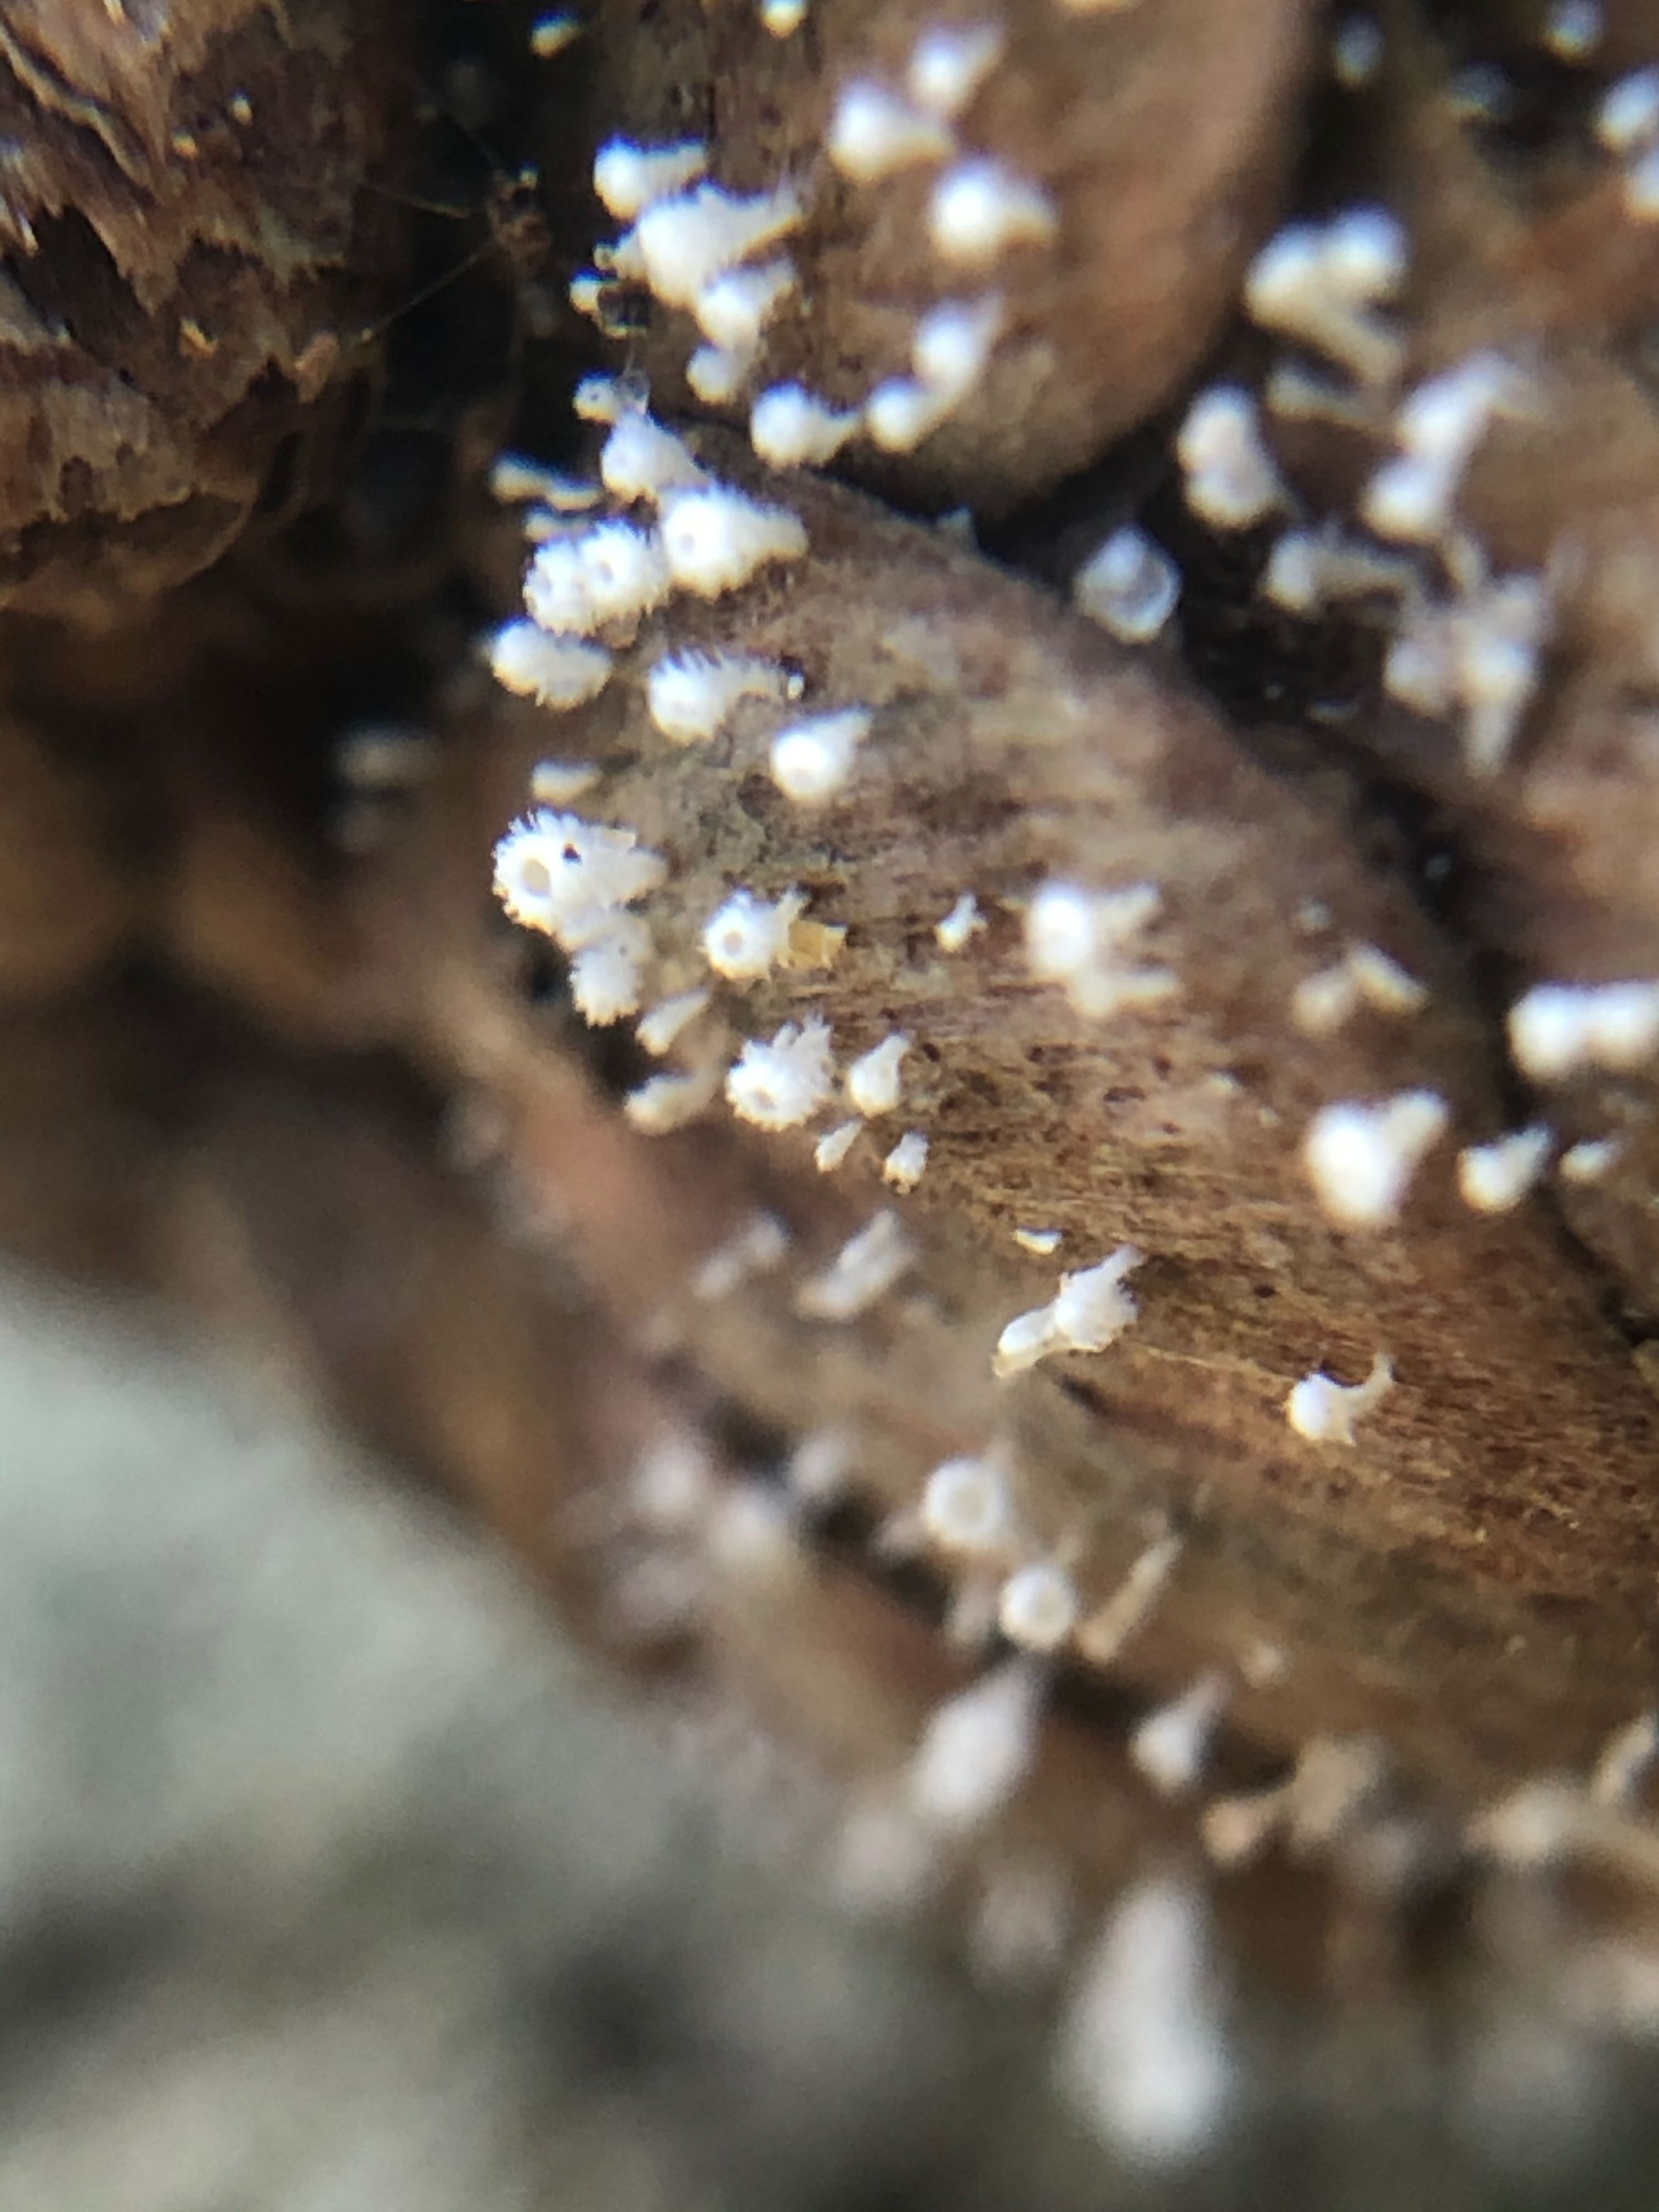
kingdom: Fungi
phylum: Ascomycota
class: Leotiomycetes
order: Helotiales
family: Lachnaceae
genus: Lachnum
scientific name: Lachnum virgineum
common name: jomfru-frynseskive
